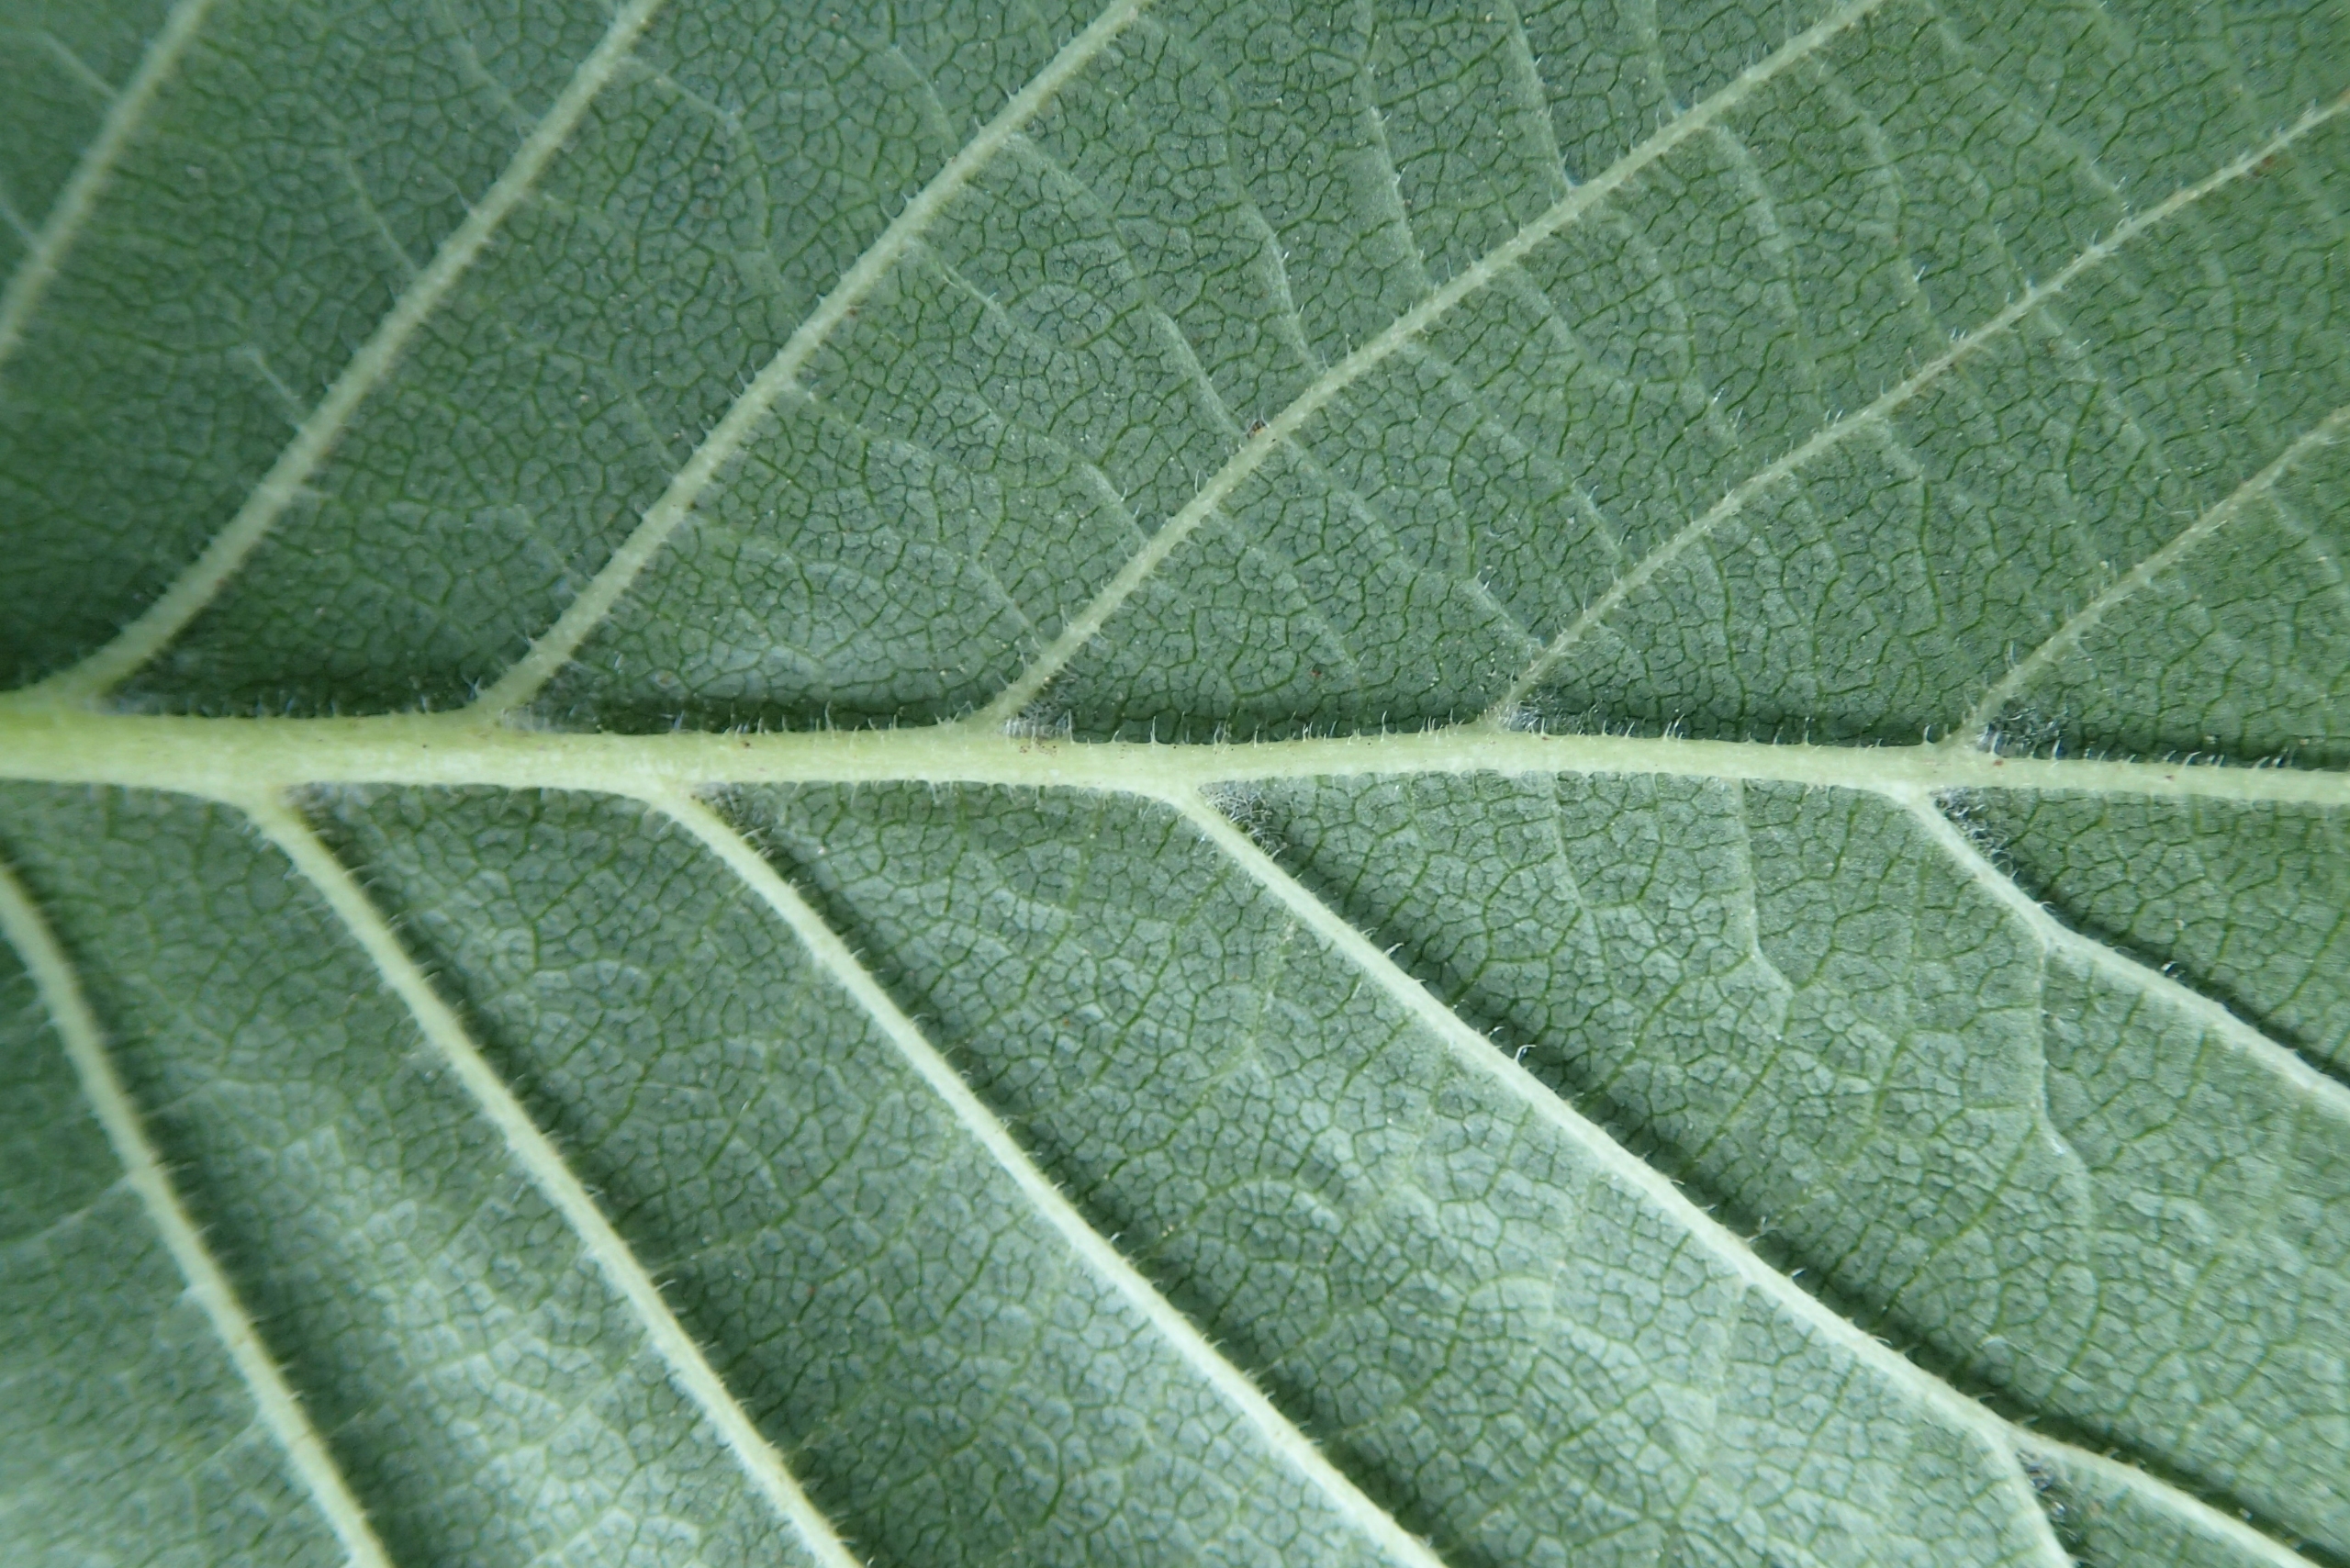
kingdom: Plantae
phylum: Tracheophyta
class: Magnoliopsida
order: Rosales
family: Ulmaceae
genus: Ulmus
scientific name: Ulmus glabra
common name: Skov-elm/storbladet elm
